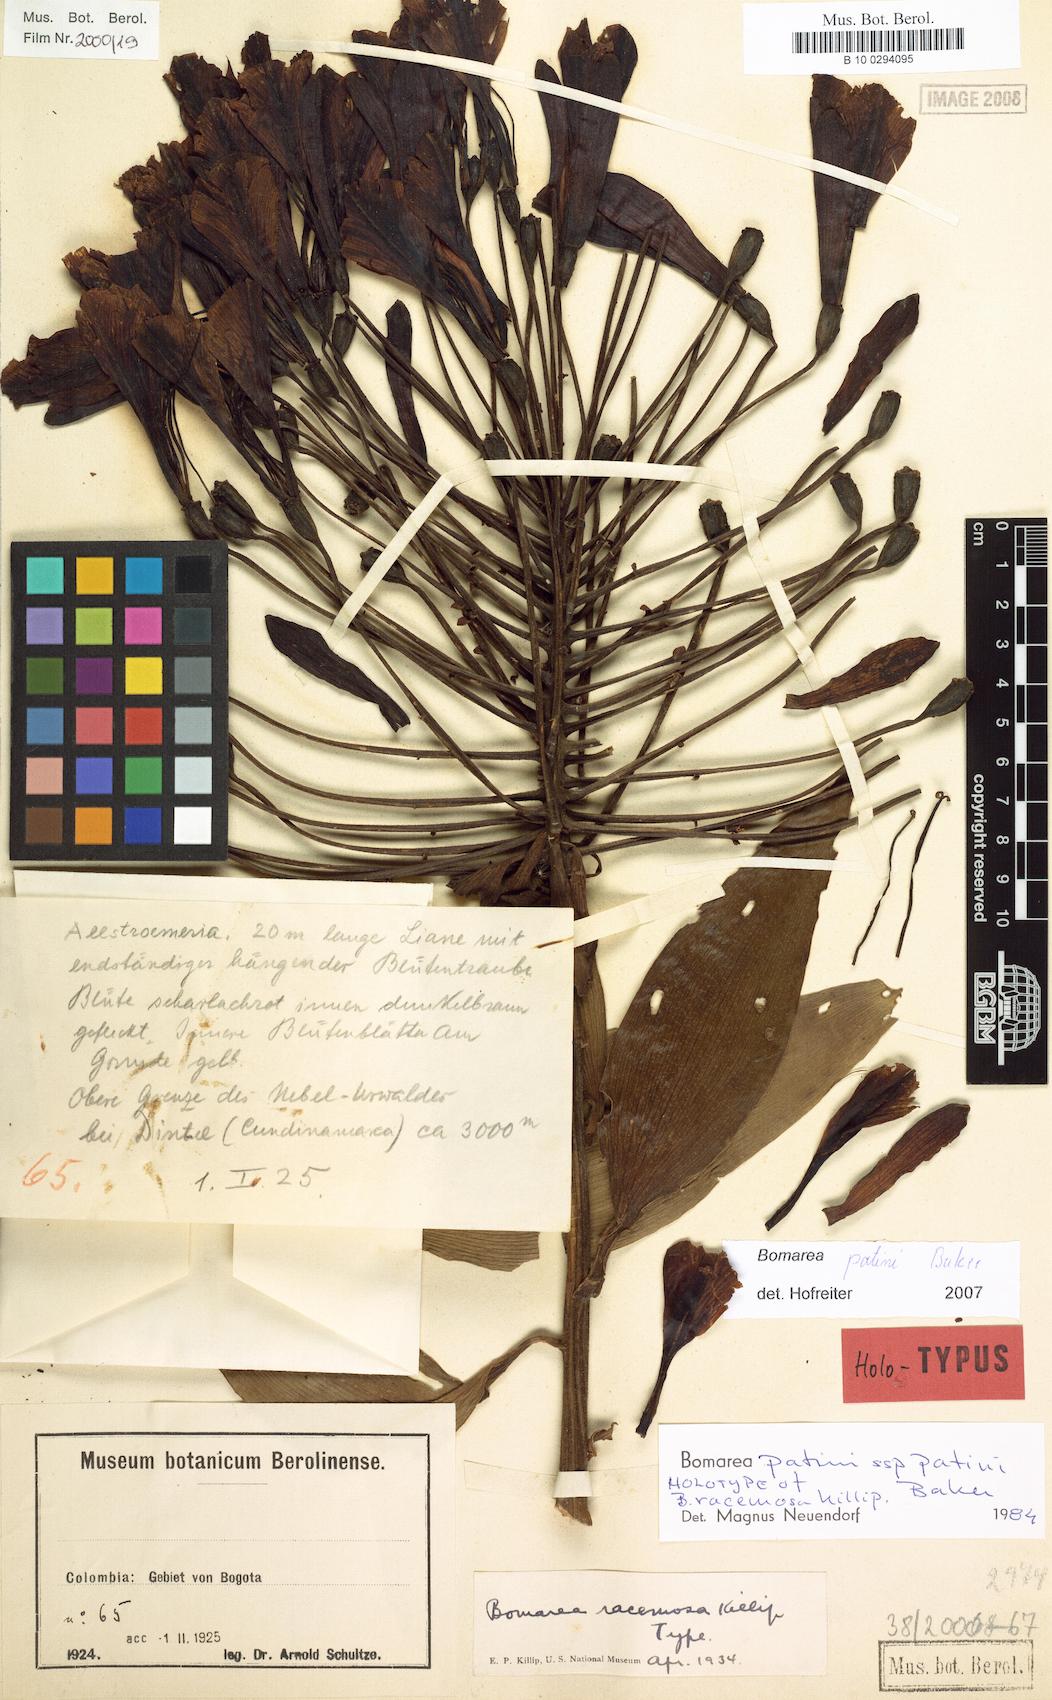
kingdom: Plantae
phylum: Tracheophyta
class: Liliopsida
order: Liliales
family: Alstroemeriaceae
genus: Bomarea
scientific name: Bomarea patinii
